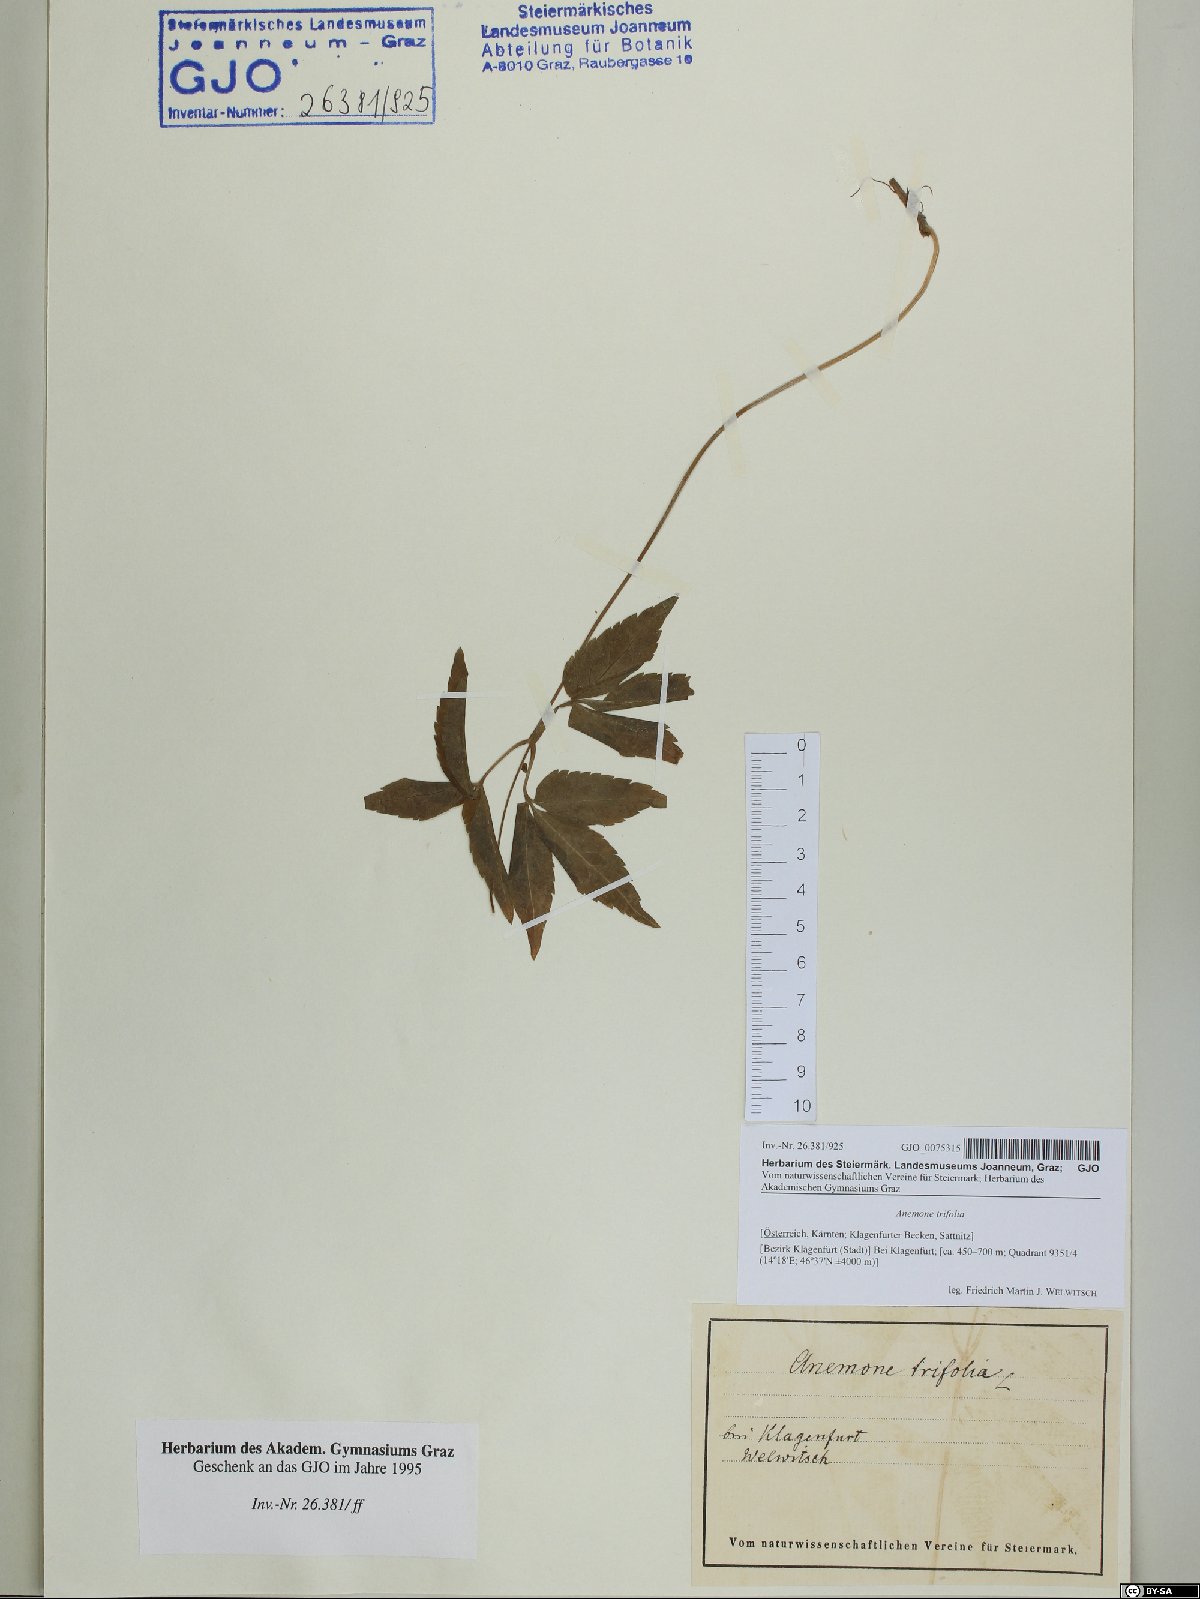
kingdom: Plantae
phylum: Tracheophyta
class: Magnoliopsida
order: Ranunculales
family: Ranunculaceae
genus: Anemone
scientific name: Anemone trifolia
